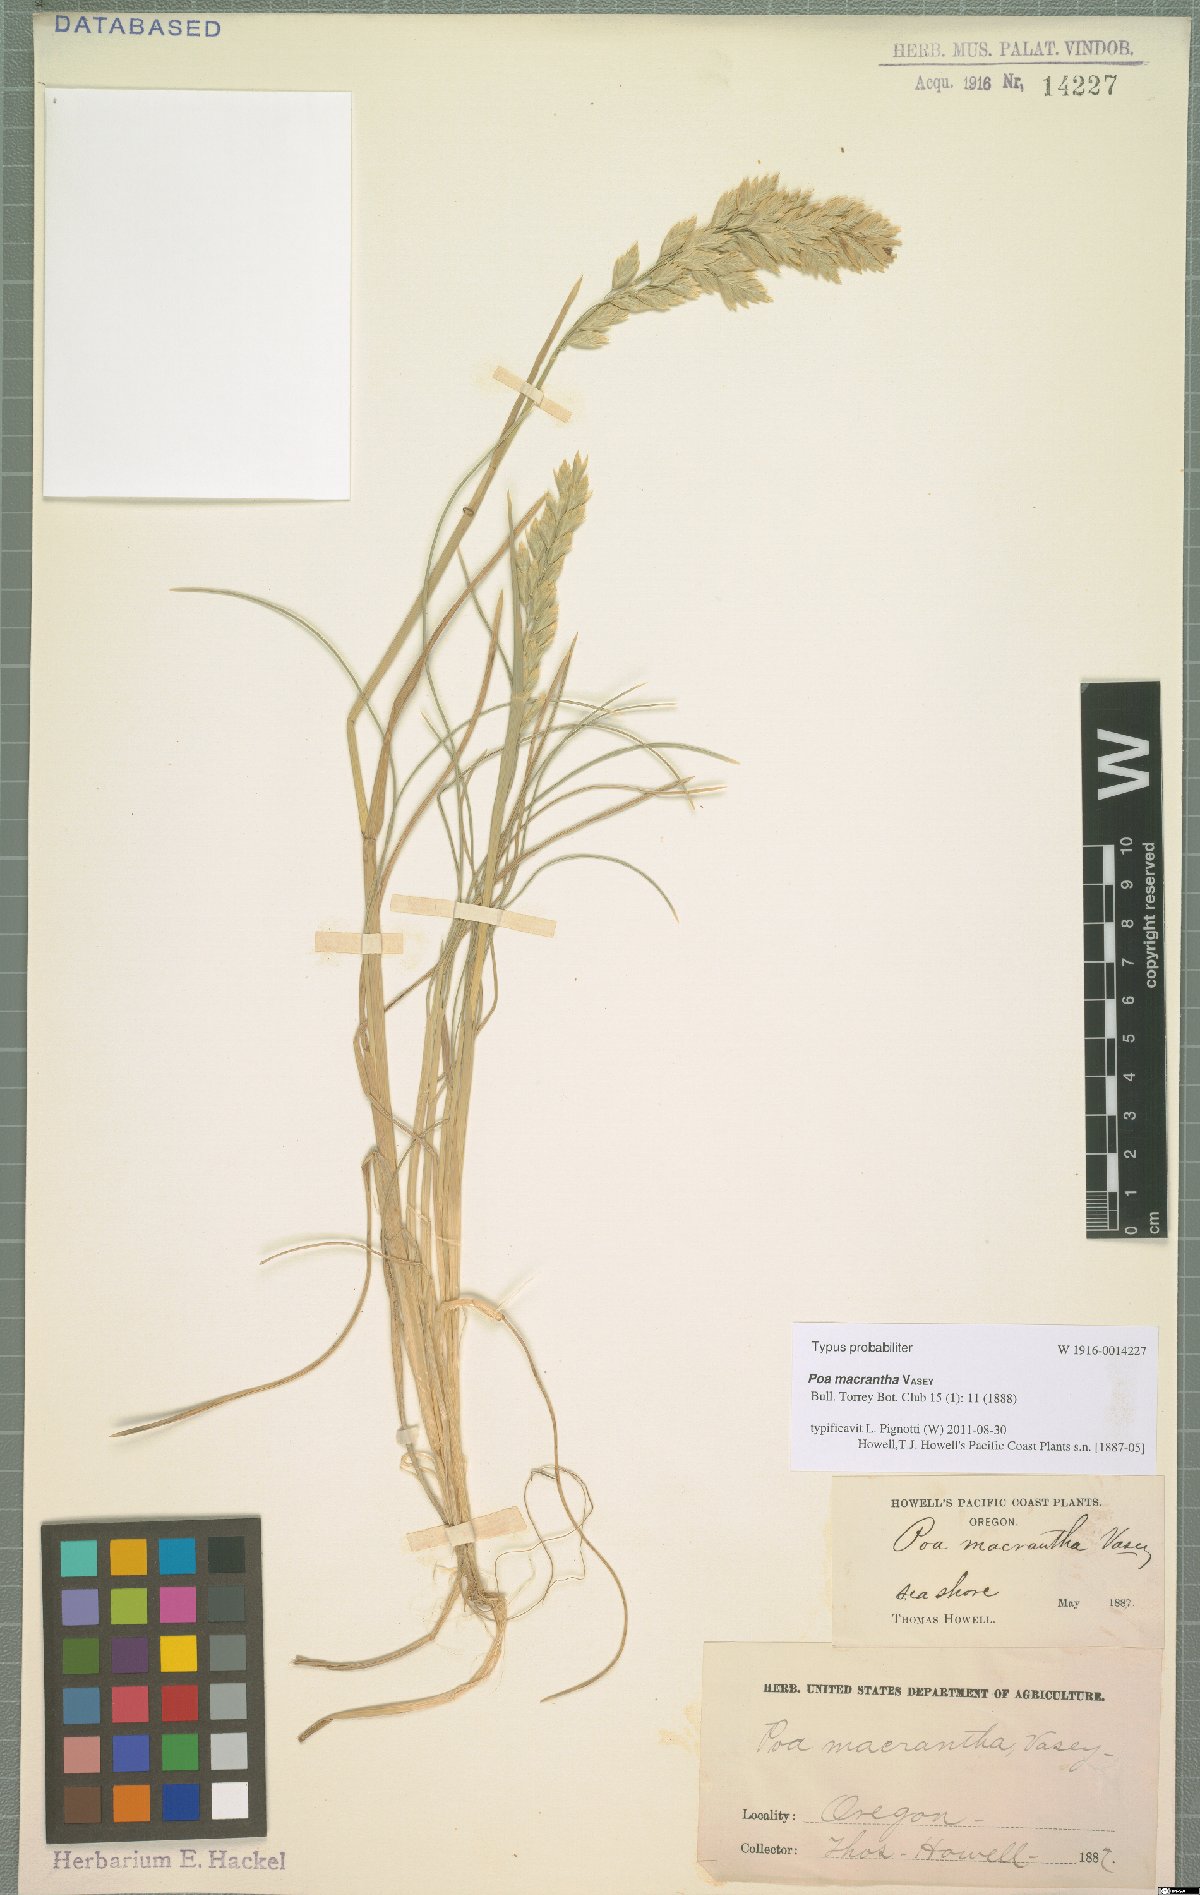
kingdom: Plantae
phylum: Tracheophyta
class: Liliopsida
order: Poales
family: Poaceae
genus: Poa
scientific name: Poa macrantha
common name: Dune bluegrass
